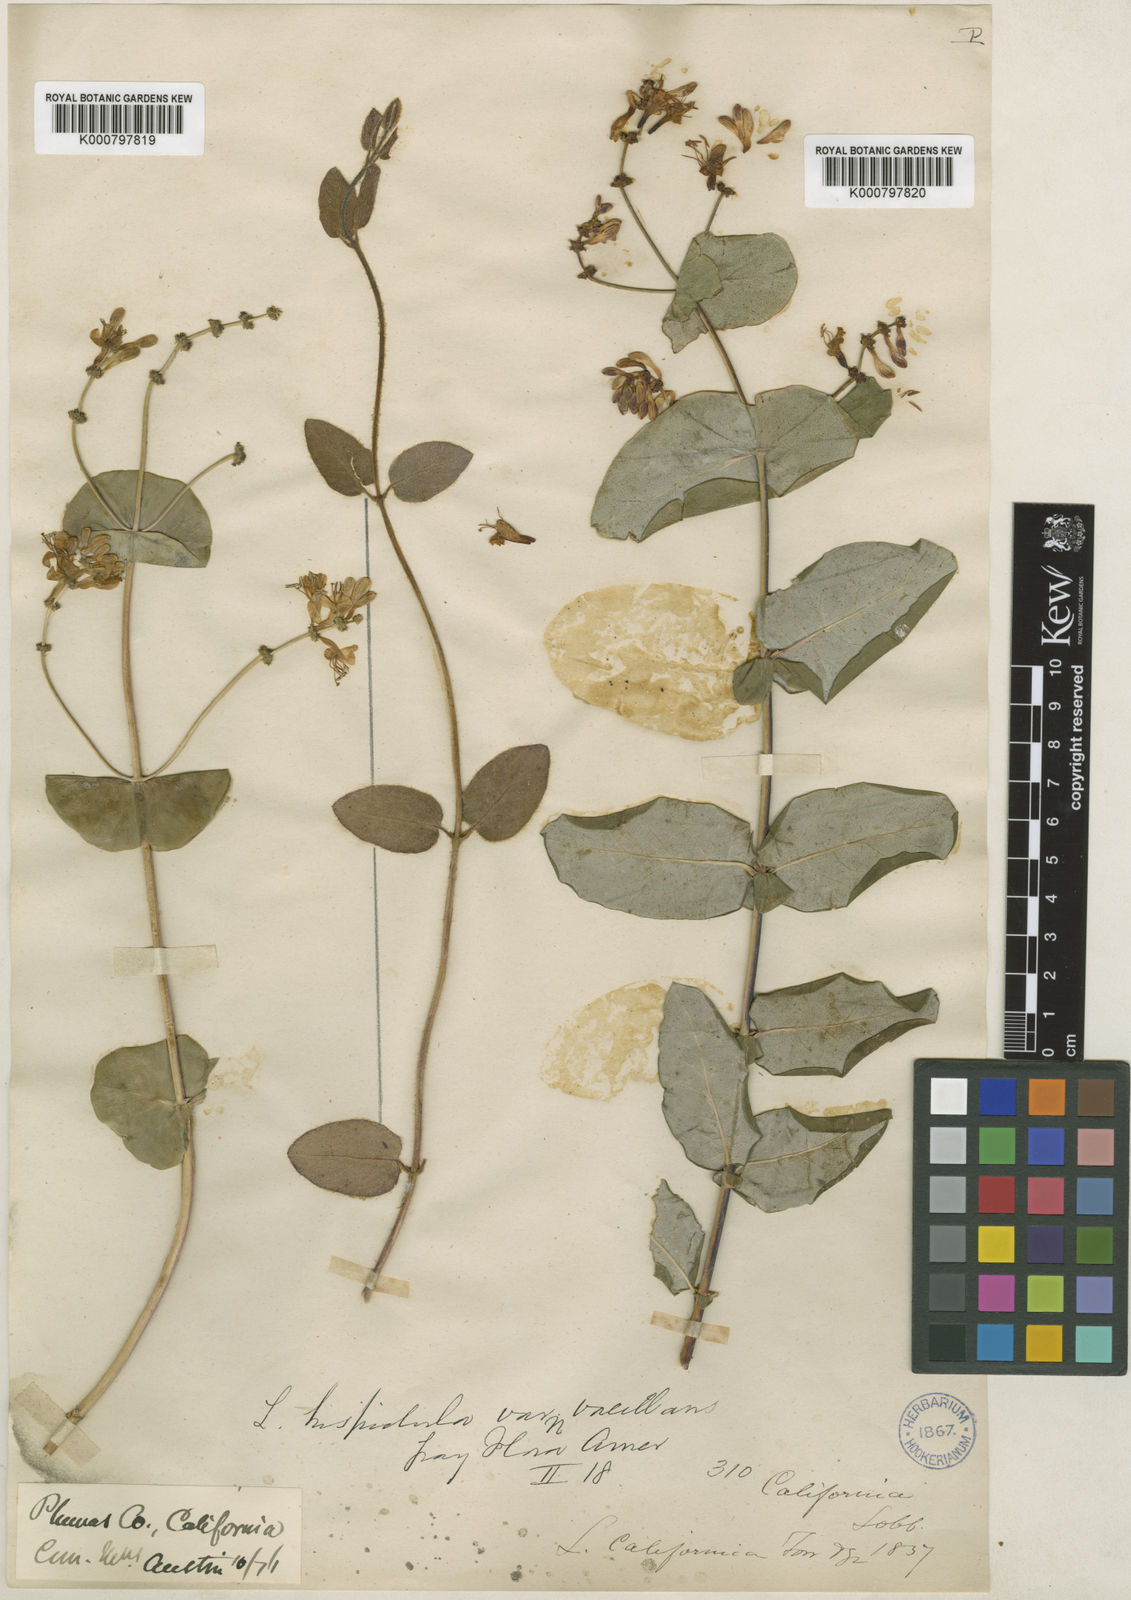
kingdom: Plantae
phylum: Tracheophyta
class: Magnoliopsida
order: Dipsacales
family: Caprifoliaceae
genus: Lonicera
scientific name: Lonicera hispidula
